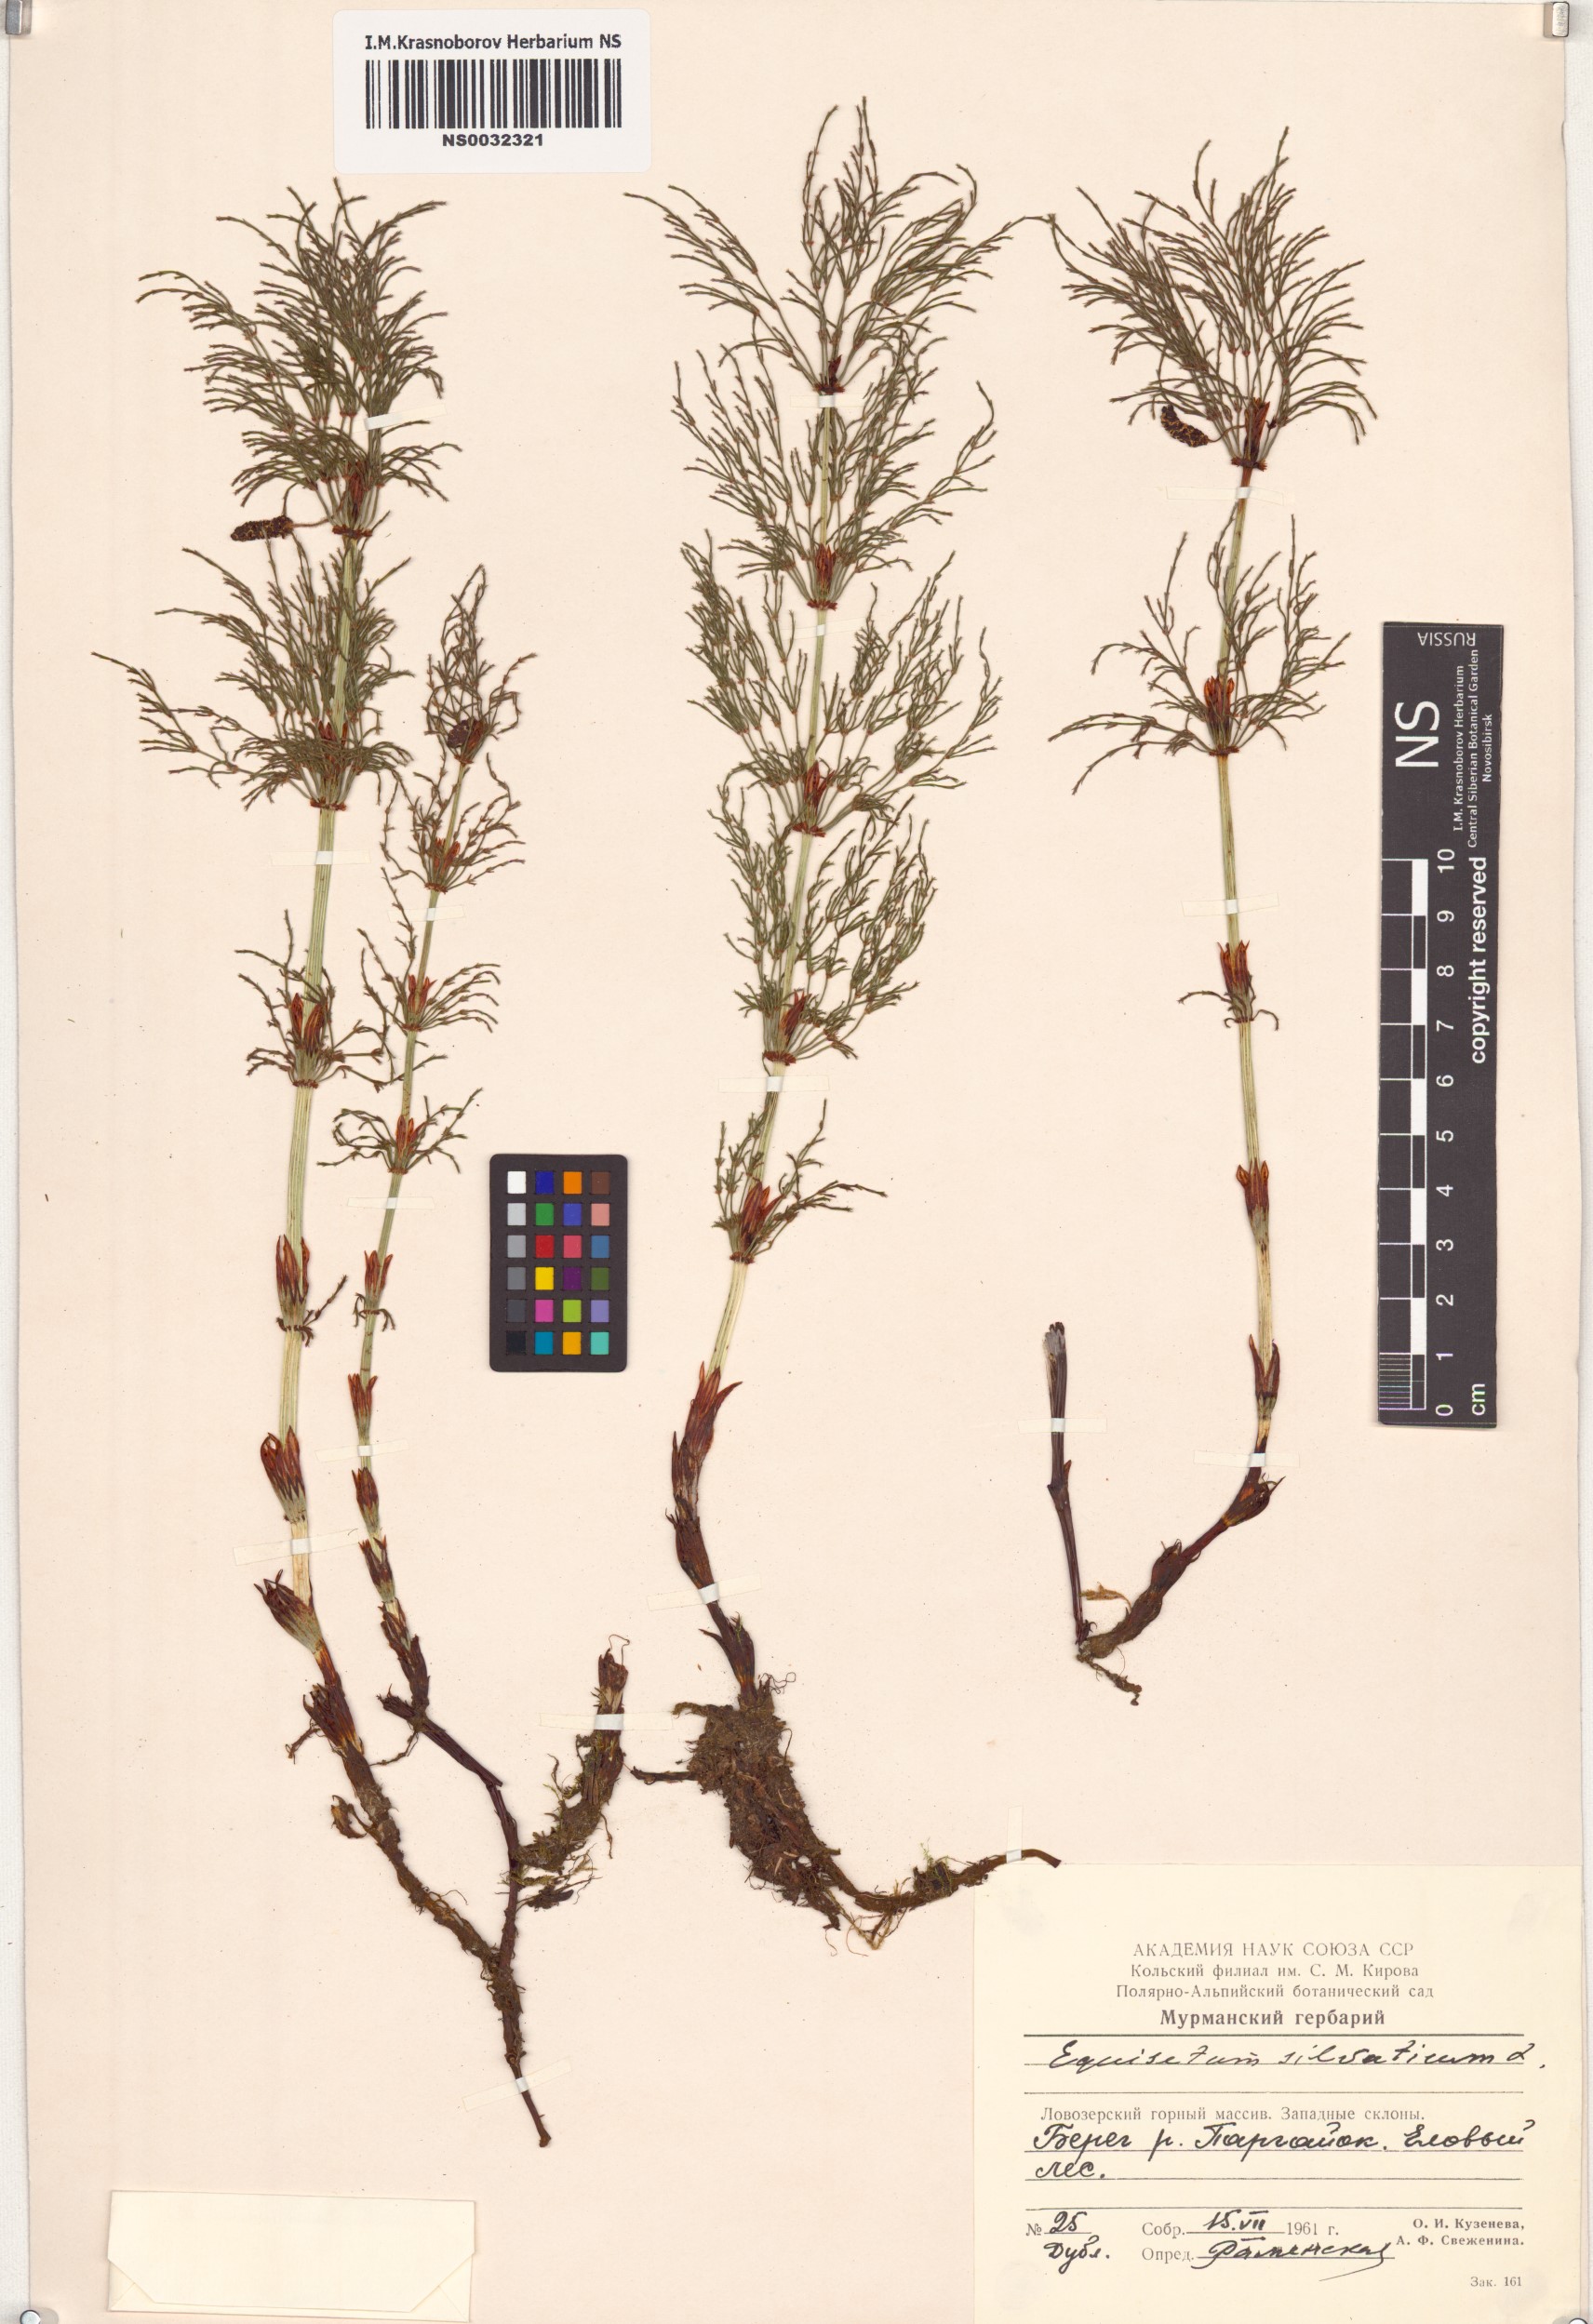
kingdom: Plantae
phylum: Tracheophyta
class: Polypodiopsida
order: Equisetales
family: Equisetaceae
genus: Equisetum
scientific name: Equisetum sylvaticum
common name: Wood horsetail
